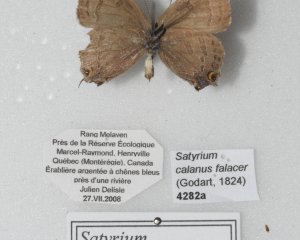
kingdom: Animalia
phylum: Arthropoda
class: Insecta
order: Lepidoptera
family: Lycaenidae
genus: Satyrium
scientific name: Satyrium calanus
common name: Banded Hairstreak
